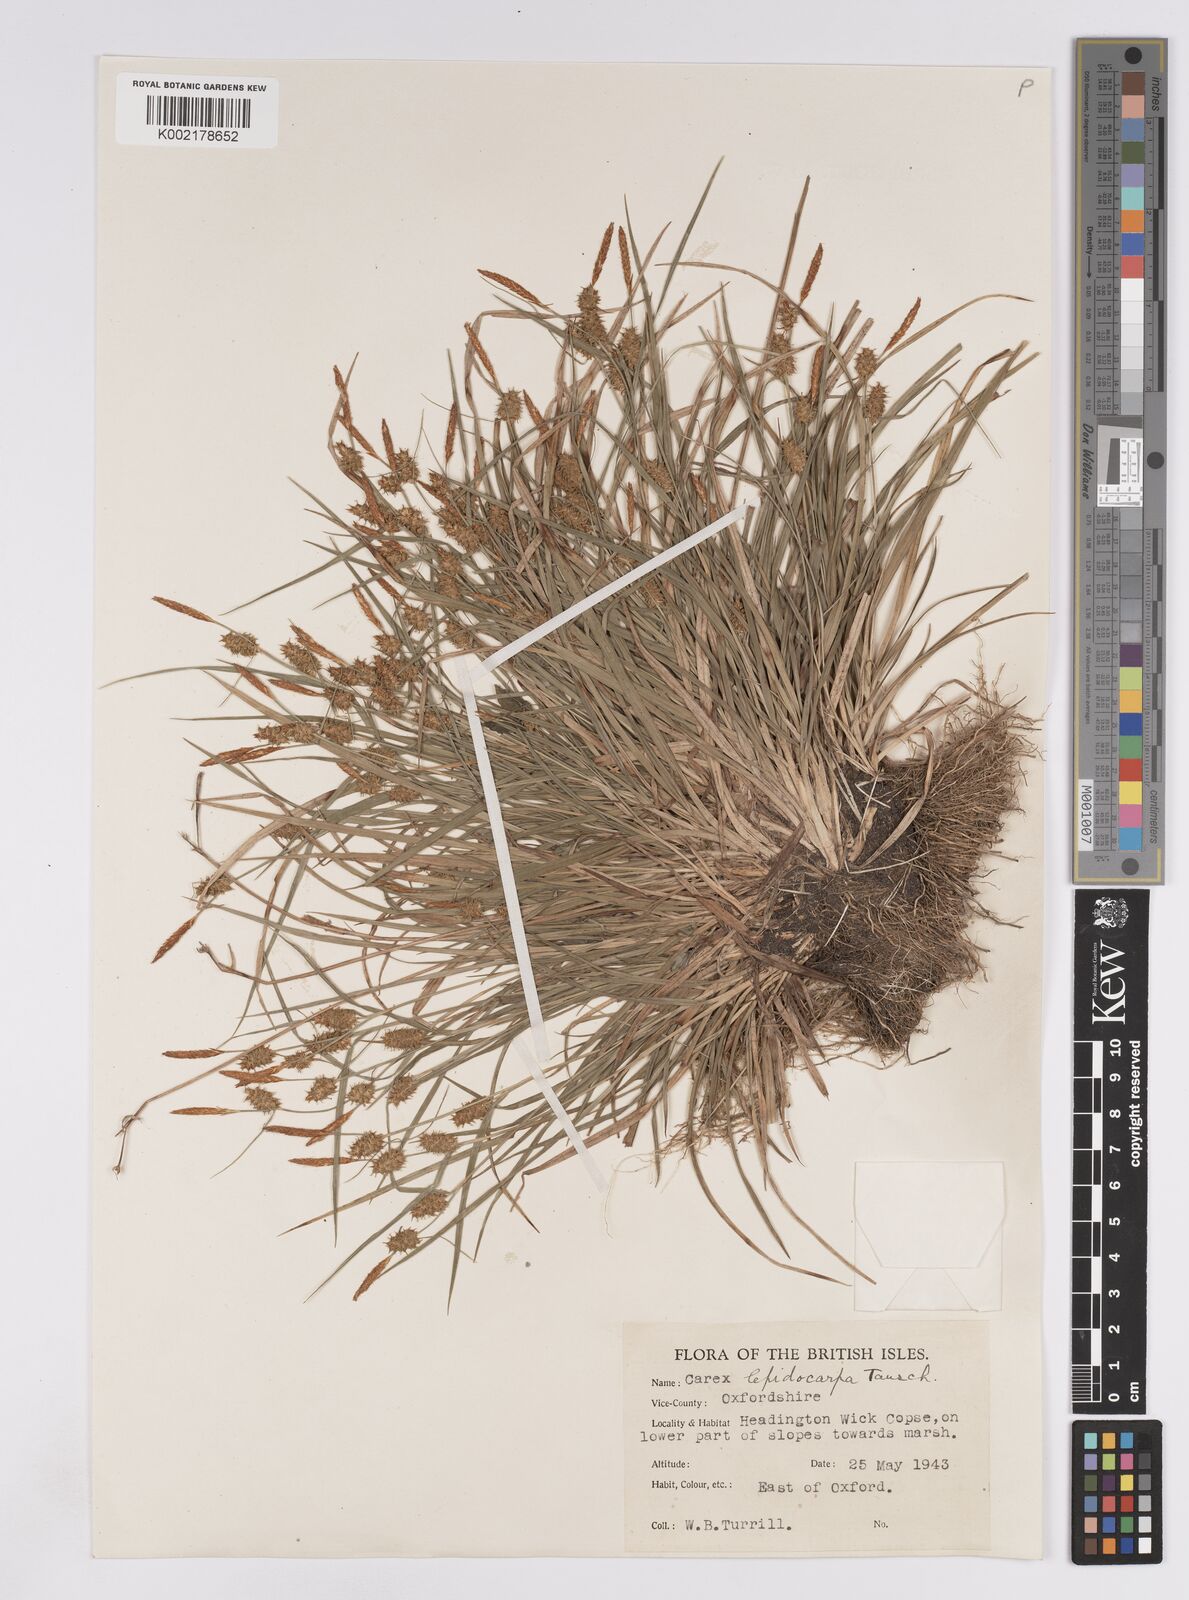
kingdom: Plantae
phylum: Tracheophyta
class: Liliopsida
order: Poales
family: Cyperaceae
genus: Carex
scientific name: Carex lepidocarpa
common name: Long-stalked yellow-sedge
